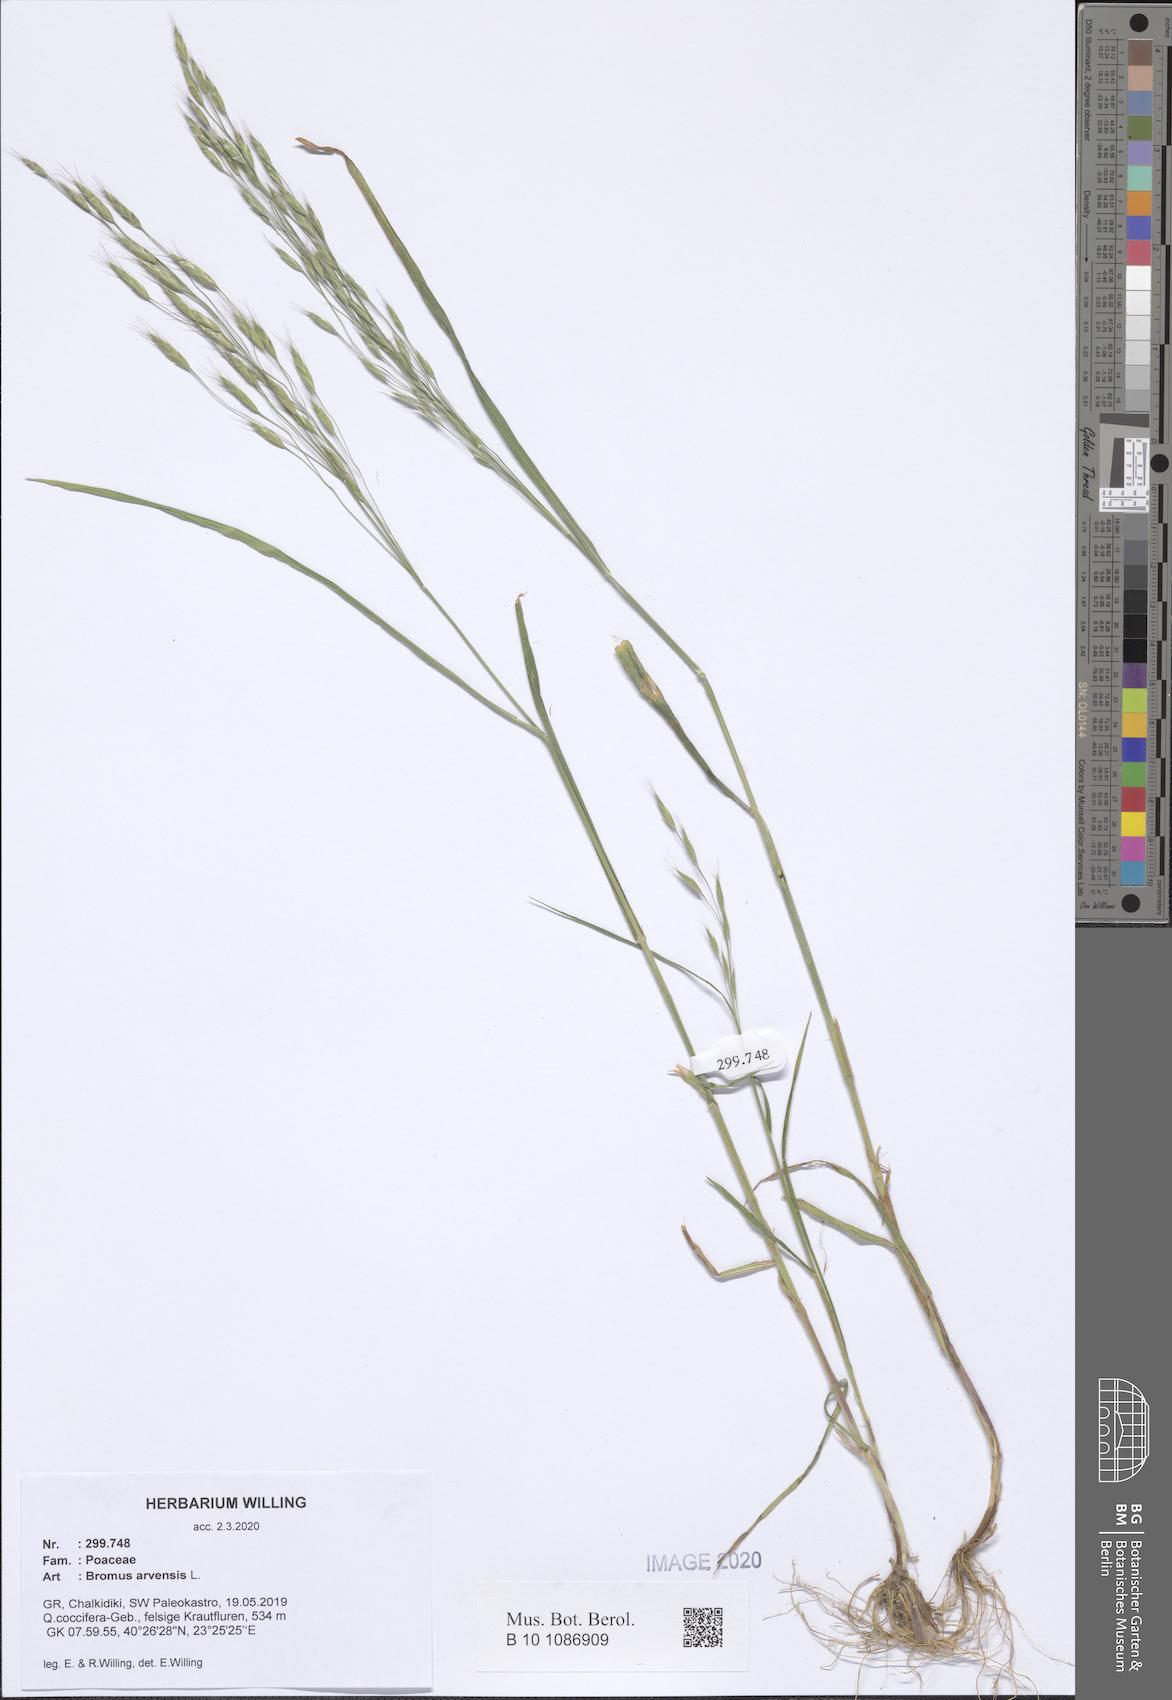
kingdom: Plantae
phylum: Tracheophyta
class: Liliopsida
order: Poales
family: Poaceae
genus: Bromus
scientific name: Bromus arvensis
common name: Field brome
